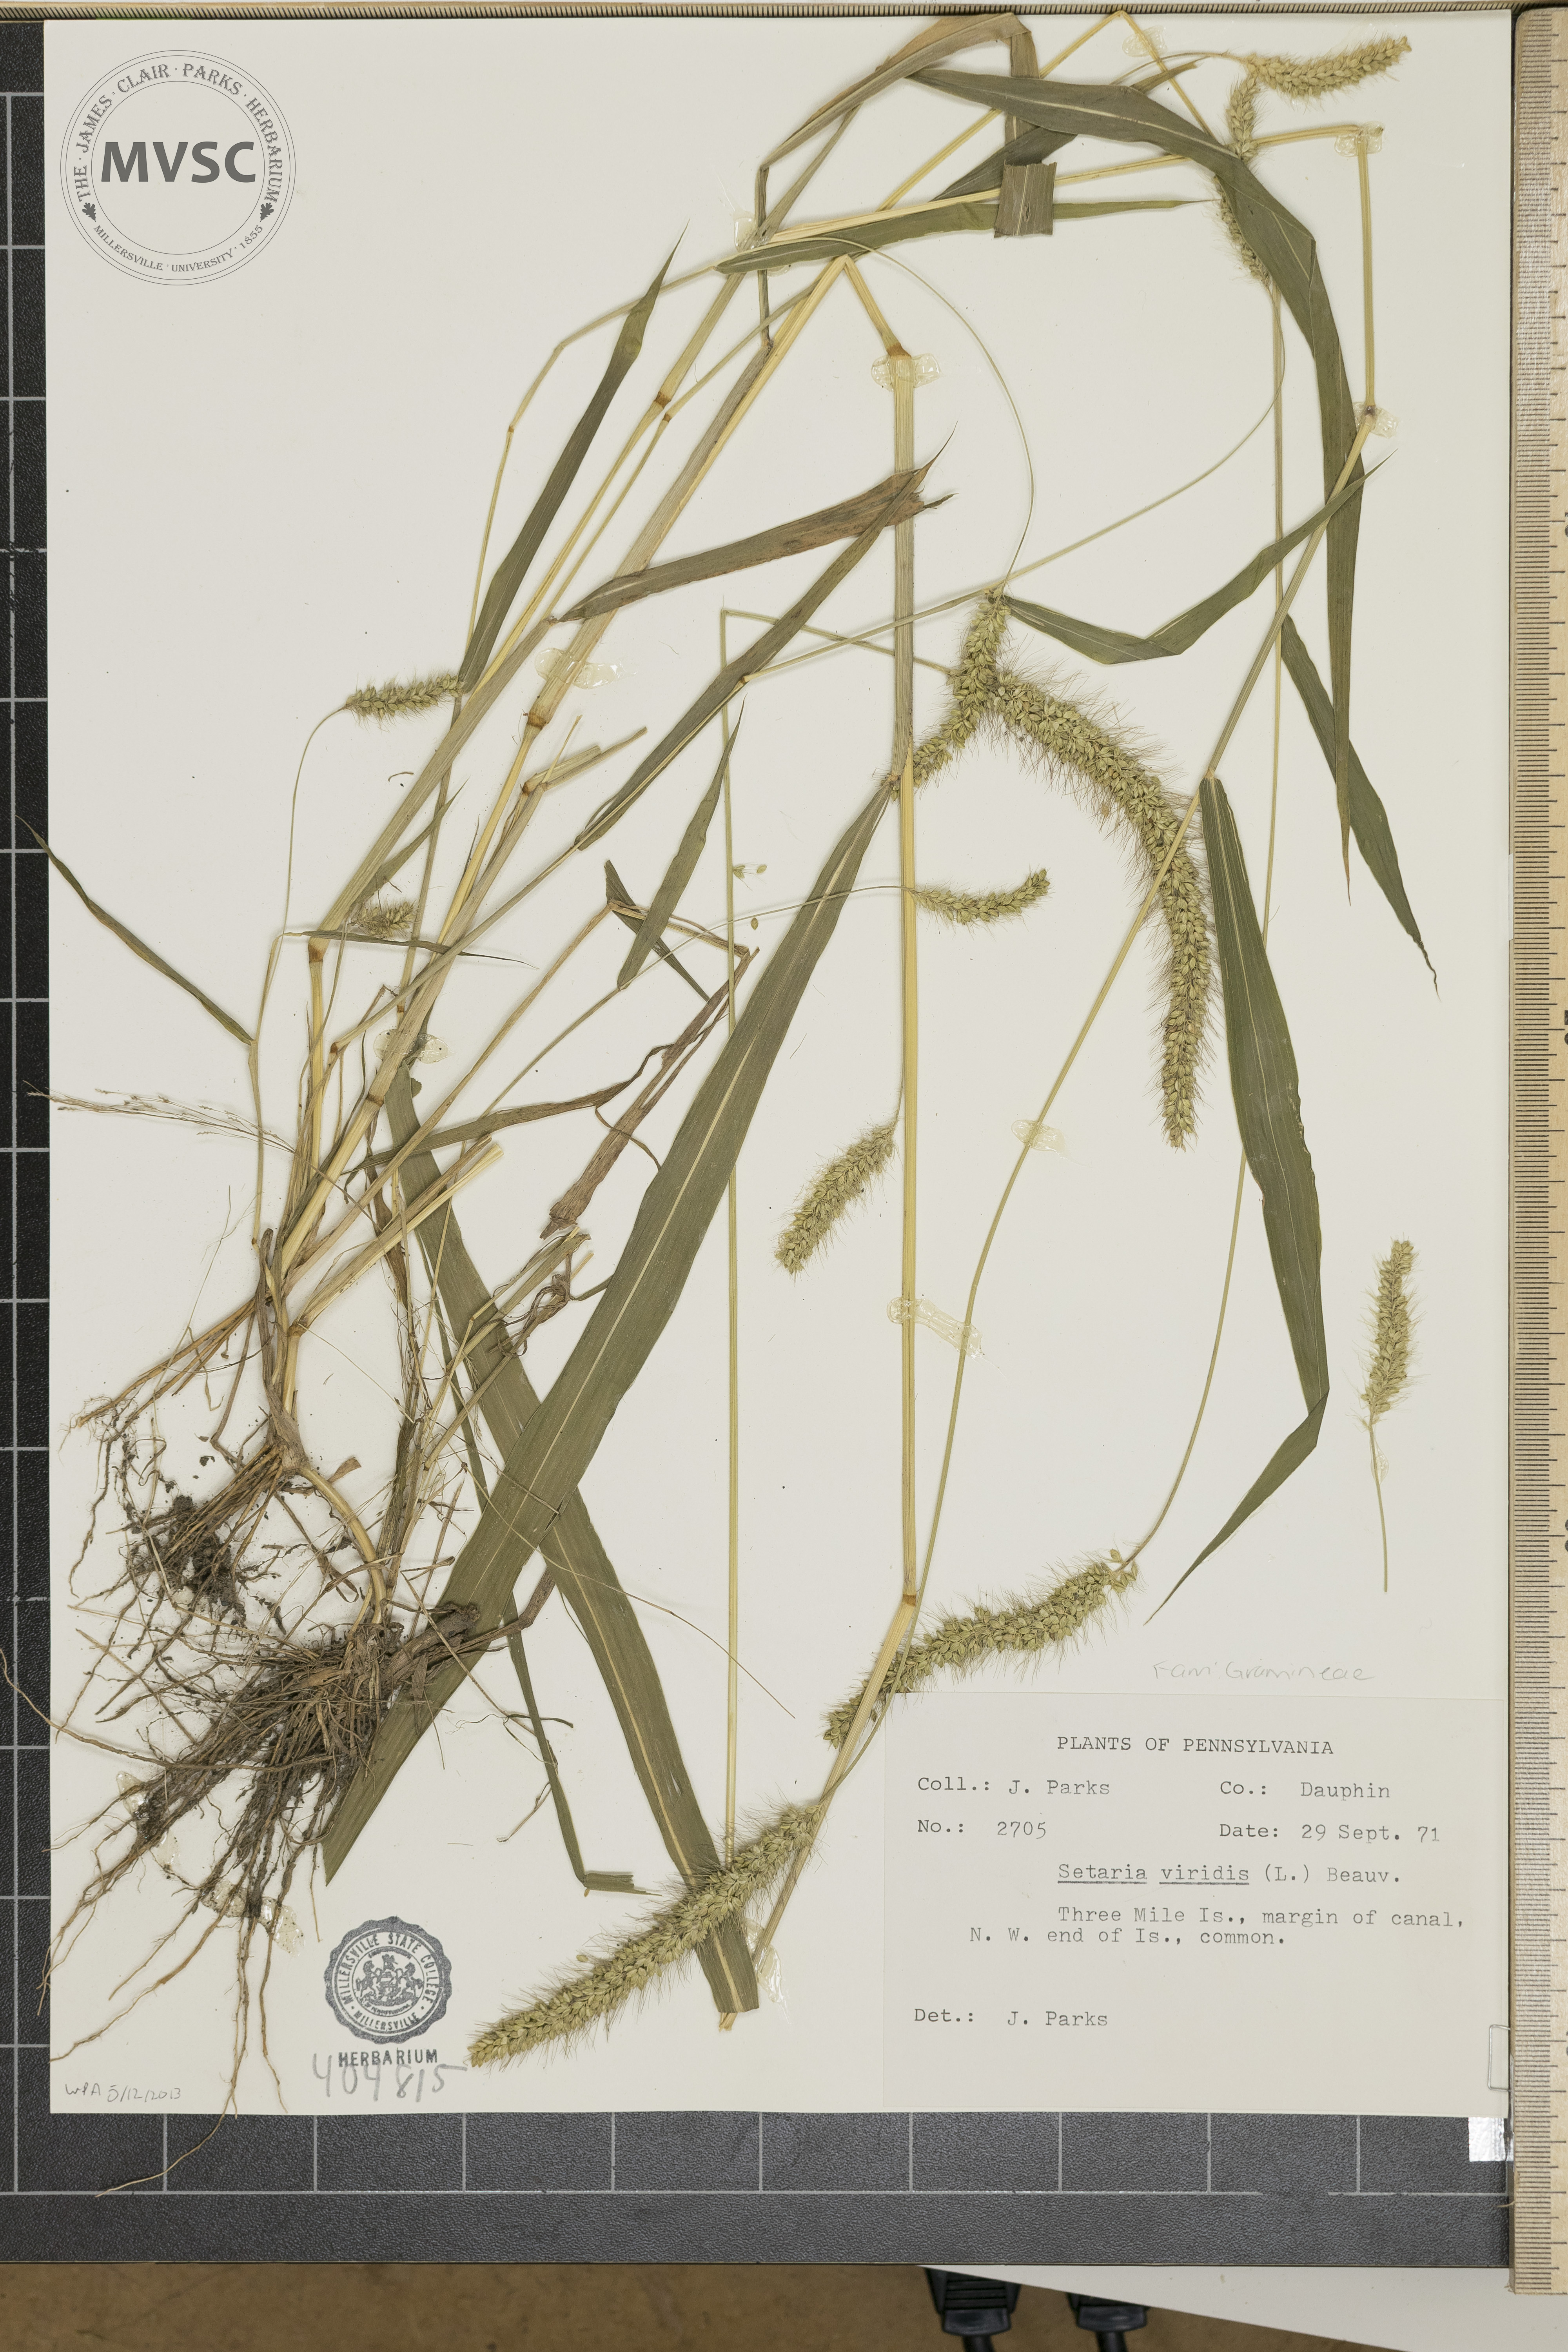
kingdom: Plantae
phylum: Tracheophyta
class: Liliopsida
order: Poales
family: Poaceae
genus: Setaria
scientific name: Setaria viridis
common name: Green bristlegrass
